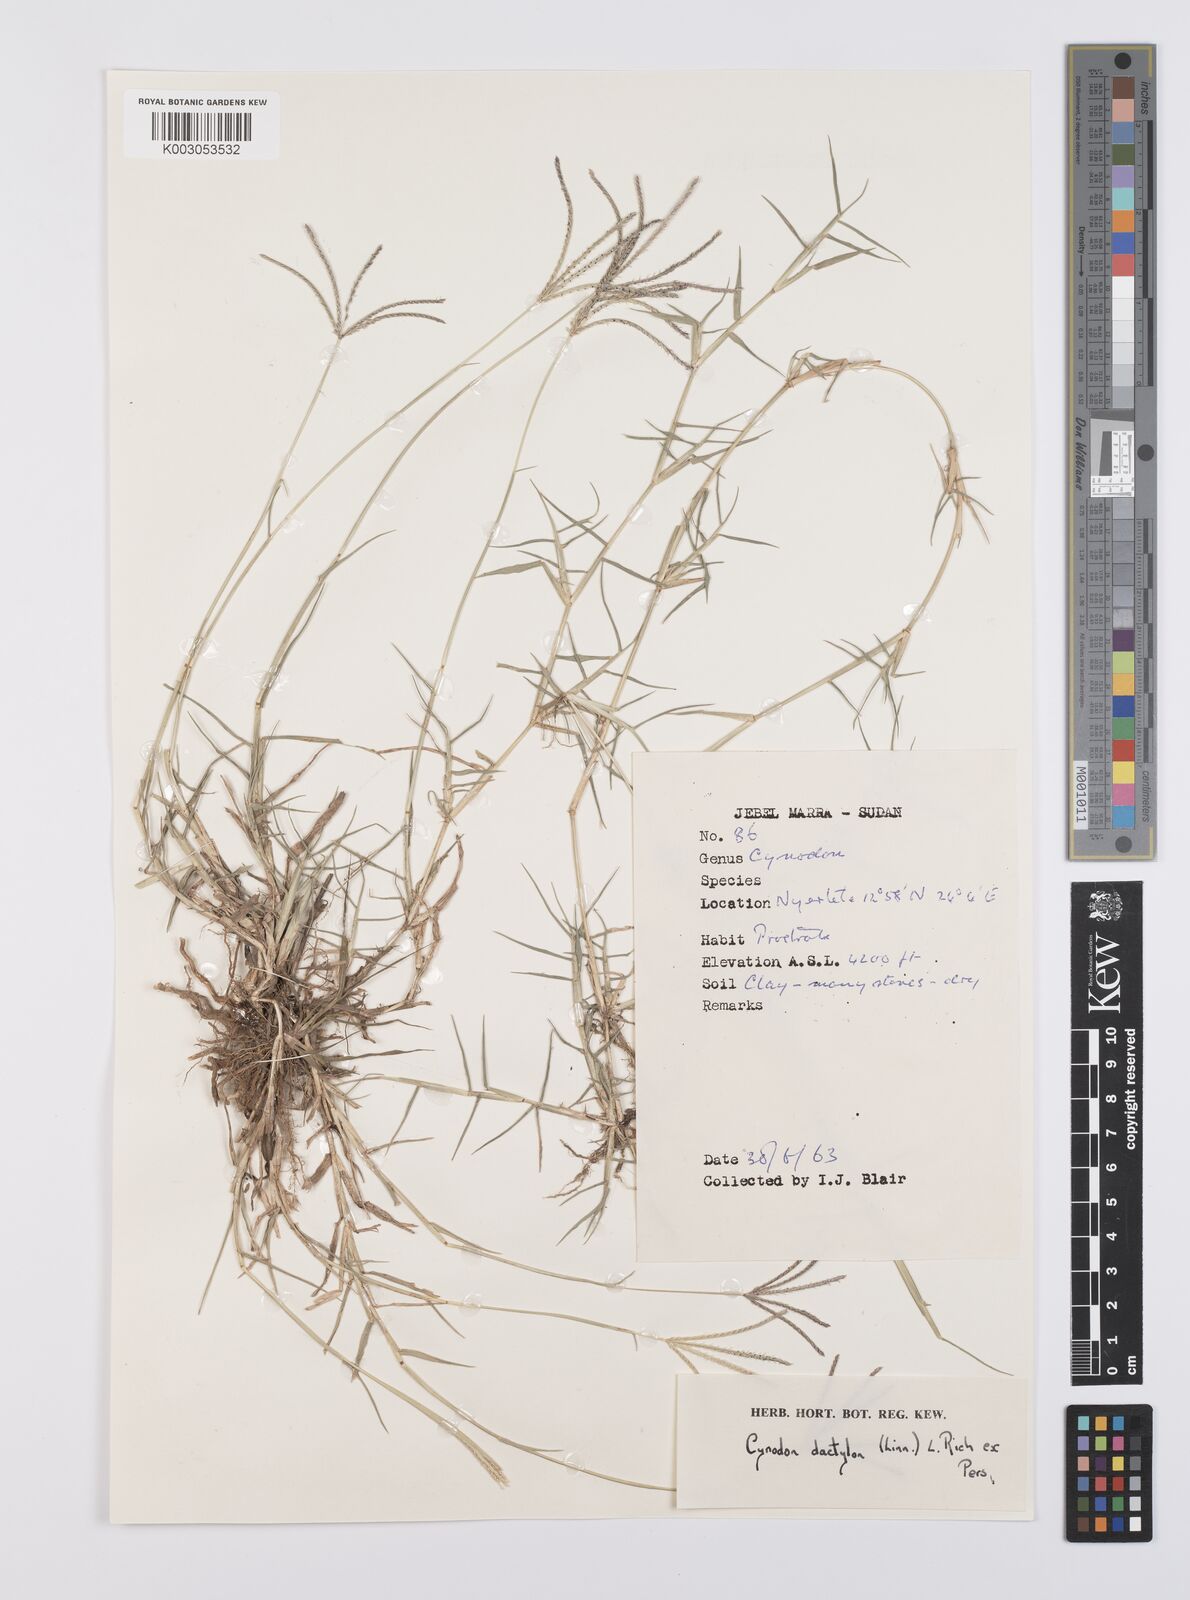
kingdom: Plantae
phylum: Tracheophyta
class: Liliopsida
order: Poales
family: Poaceae
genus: Cynodon
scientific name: Cynodon dactylon
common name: Bermuda grass
